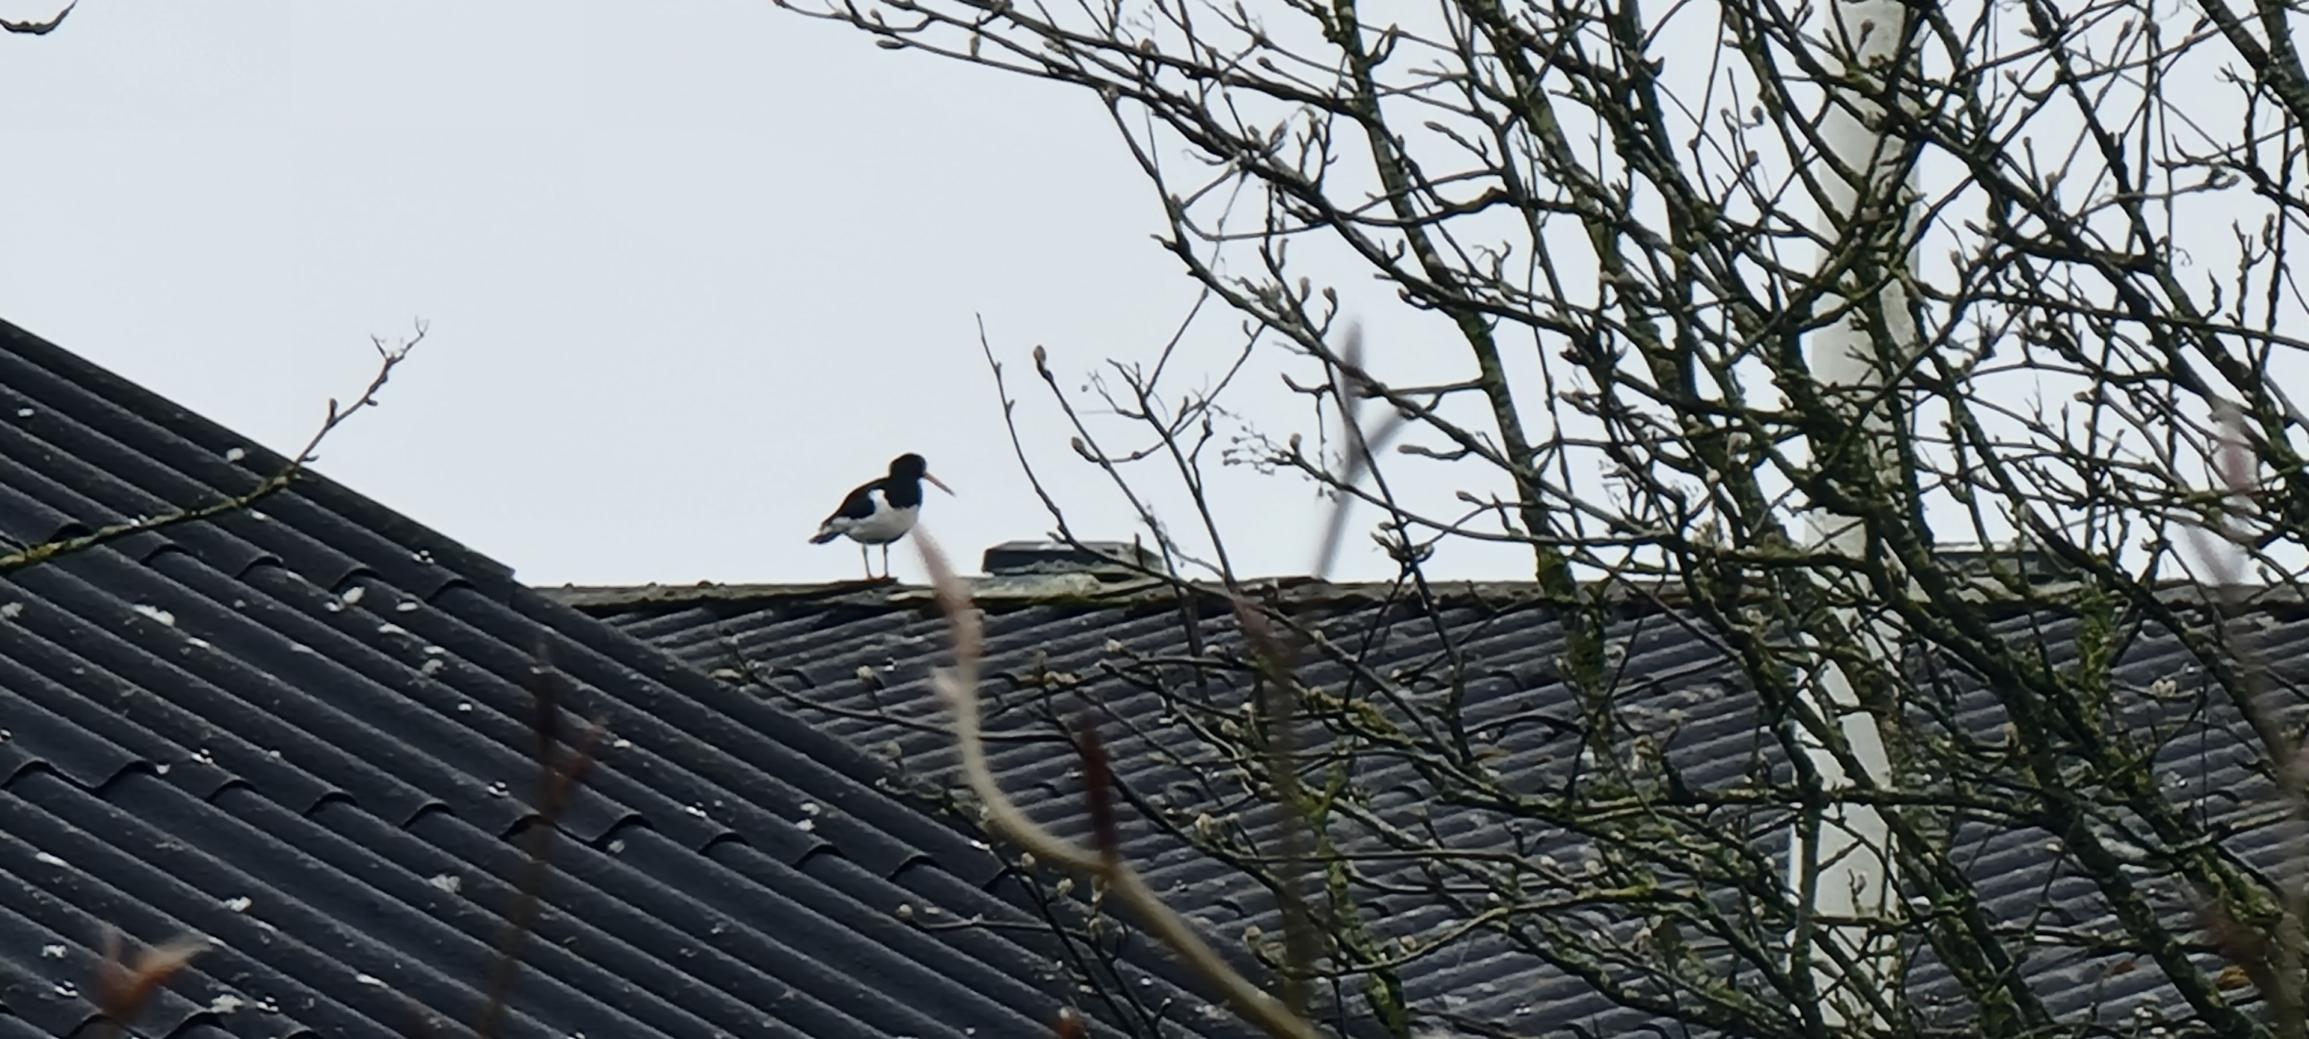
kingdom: Animalia
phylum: Chordata
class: Aves
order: Charadriiformes
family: Haematopodidae
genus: Haematopus
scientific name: Haematopus ostralegus
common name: Strandskade
